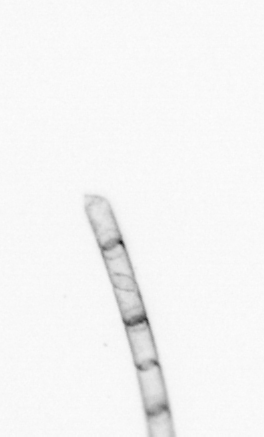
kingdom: Chromista
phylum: Ochrophyta
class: Bacillariophyceae
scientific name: Bacillariophyceae
